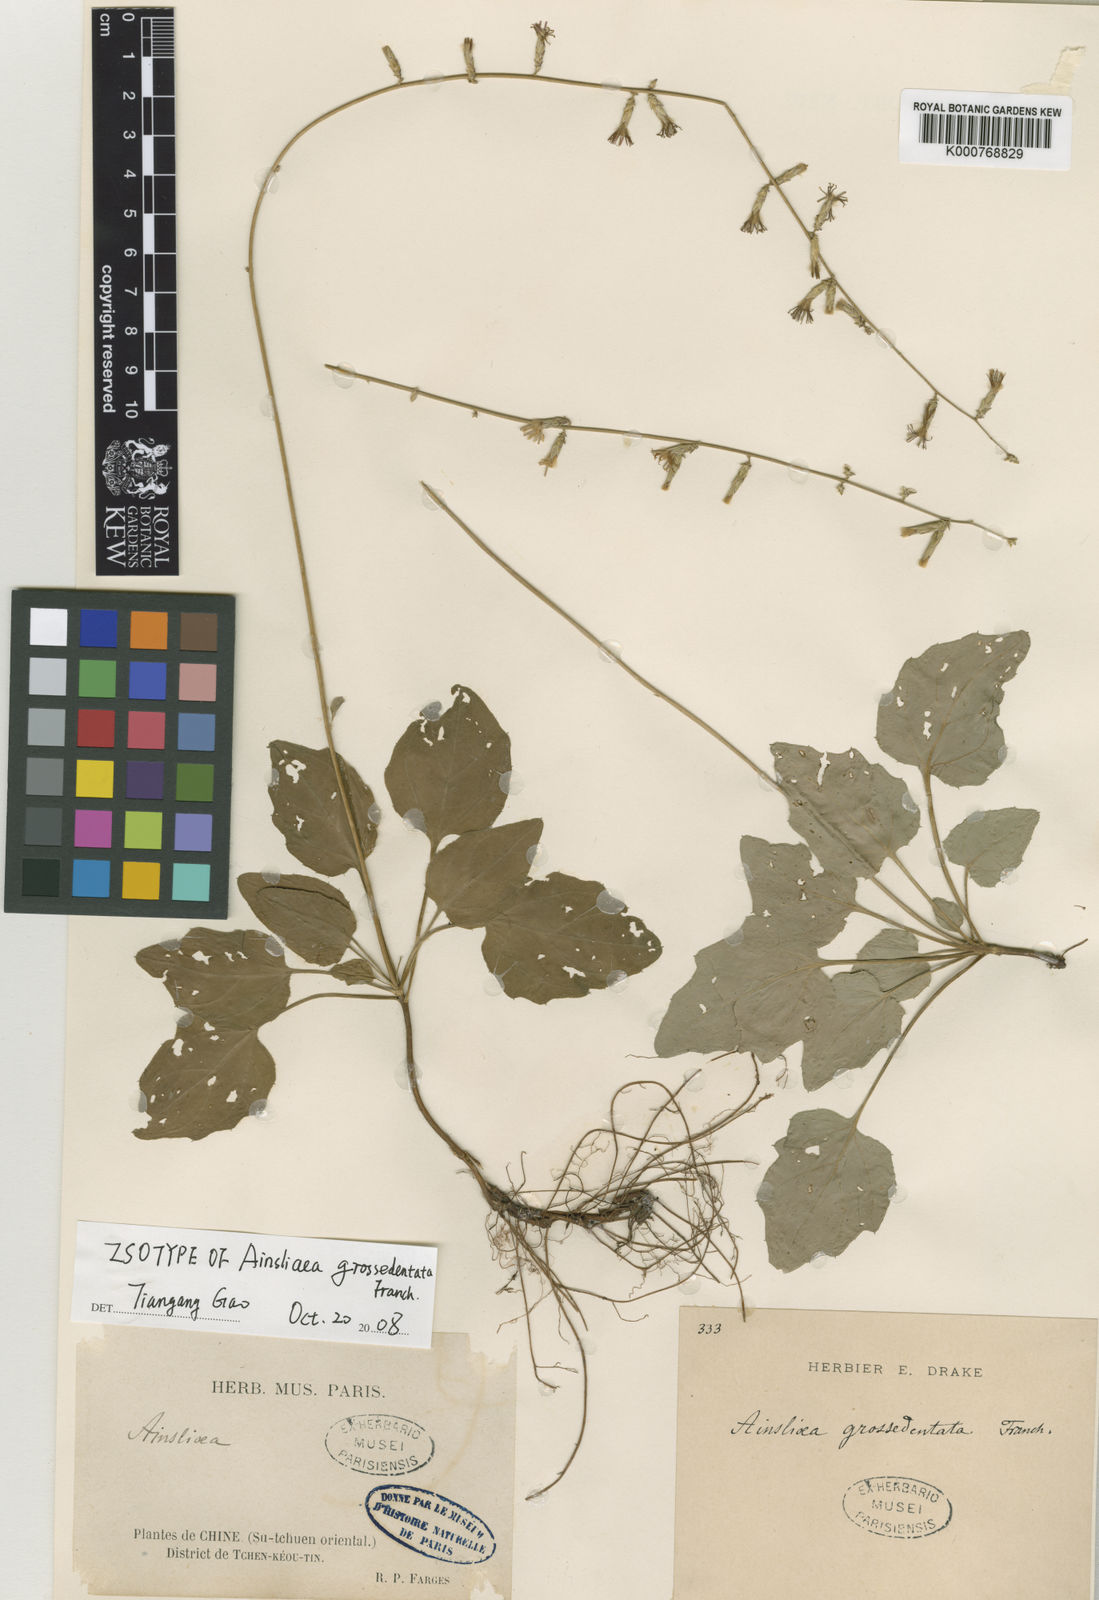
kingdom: Plantae
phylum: Tracheophyta
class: Magnoliopsida
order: Asterales
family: Asteraceae
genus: Ainsliaea
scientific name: Ainsliaea grossedentata
